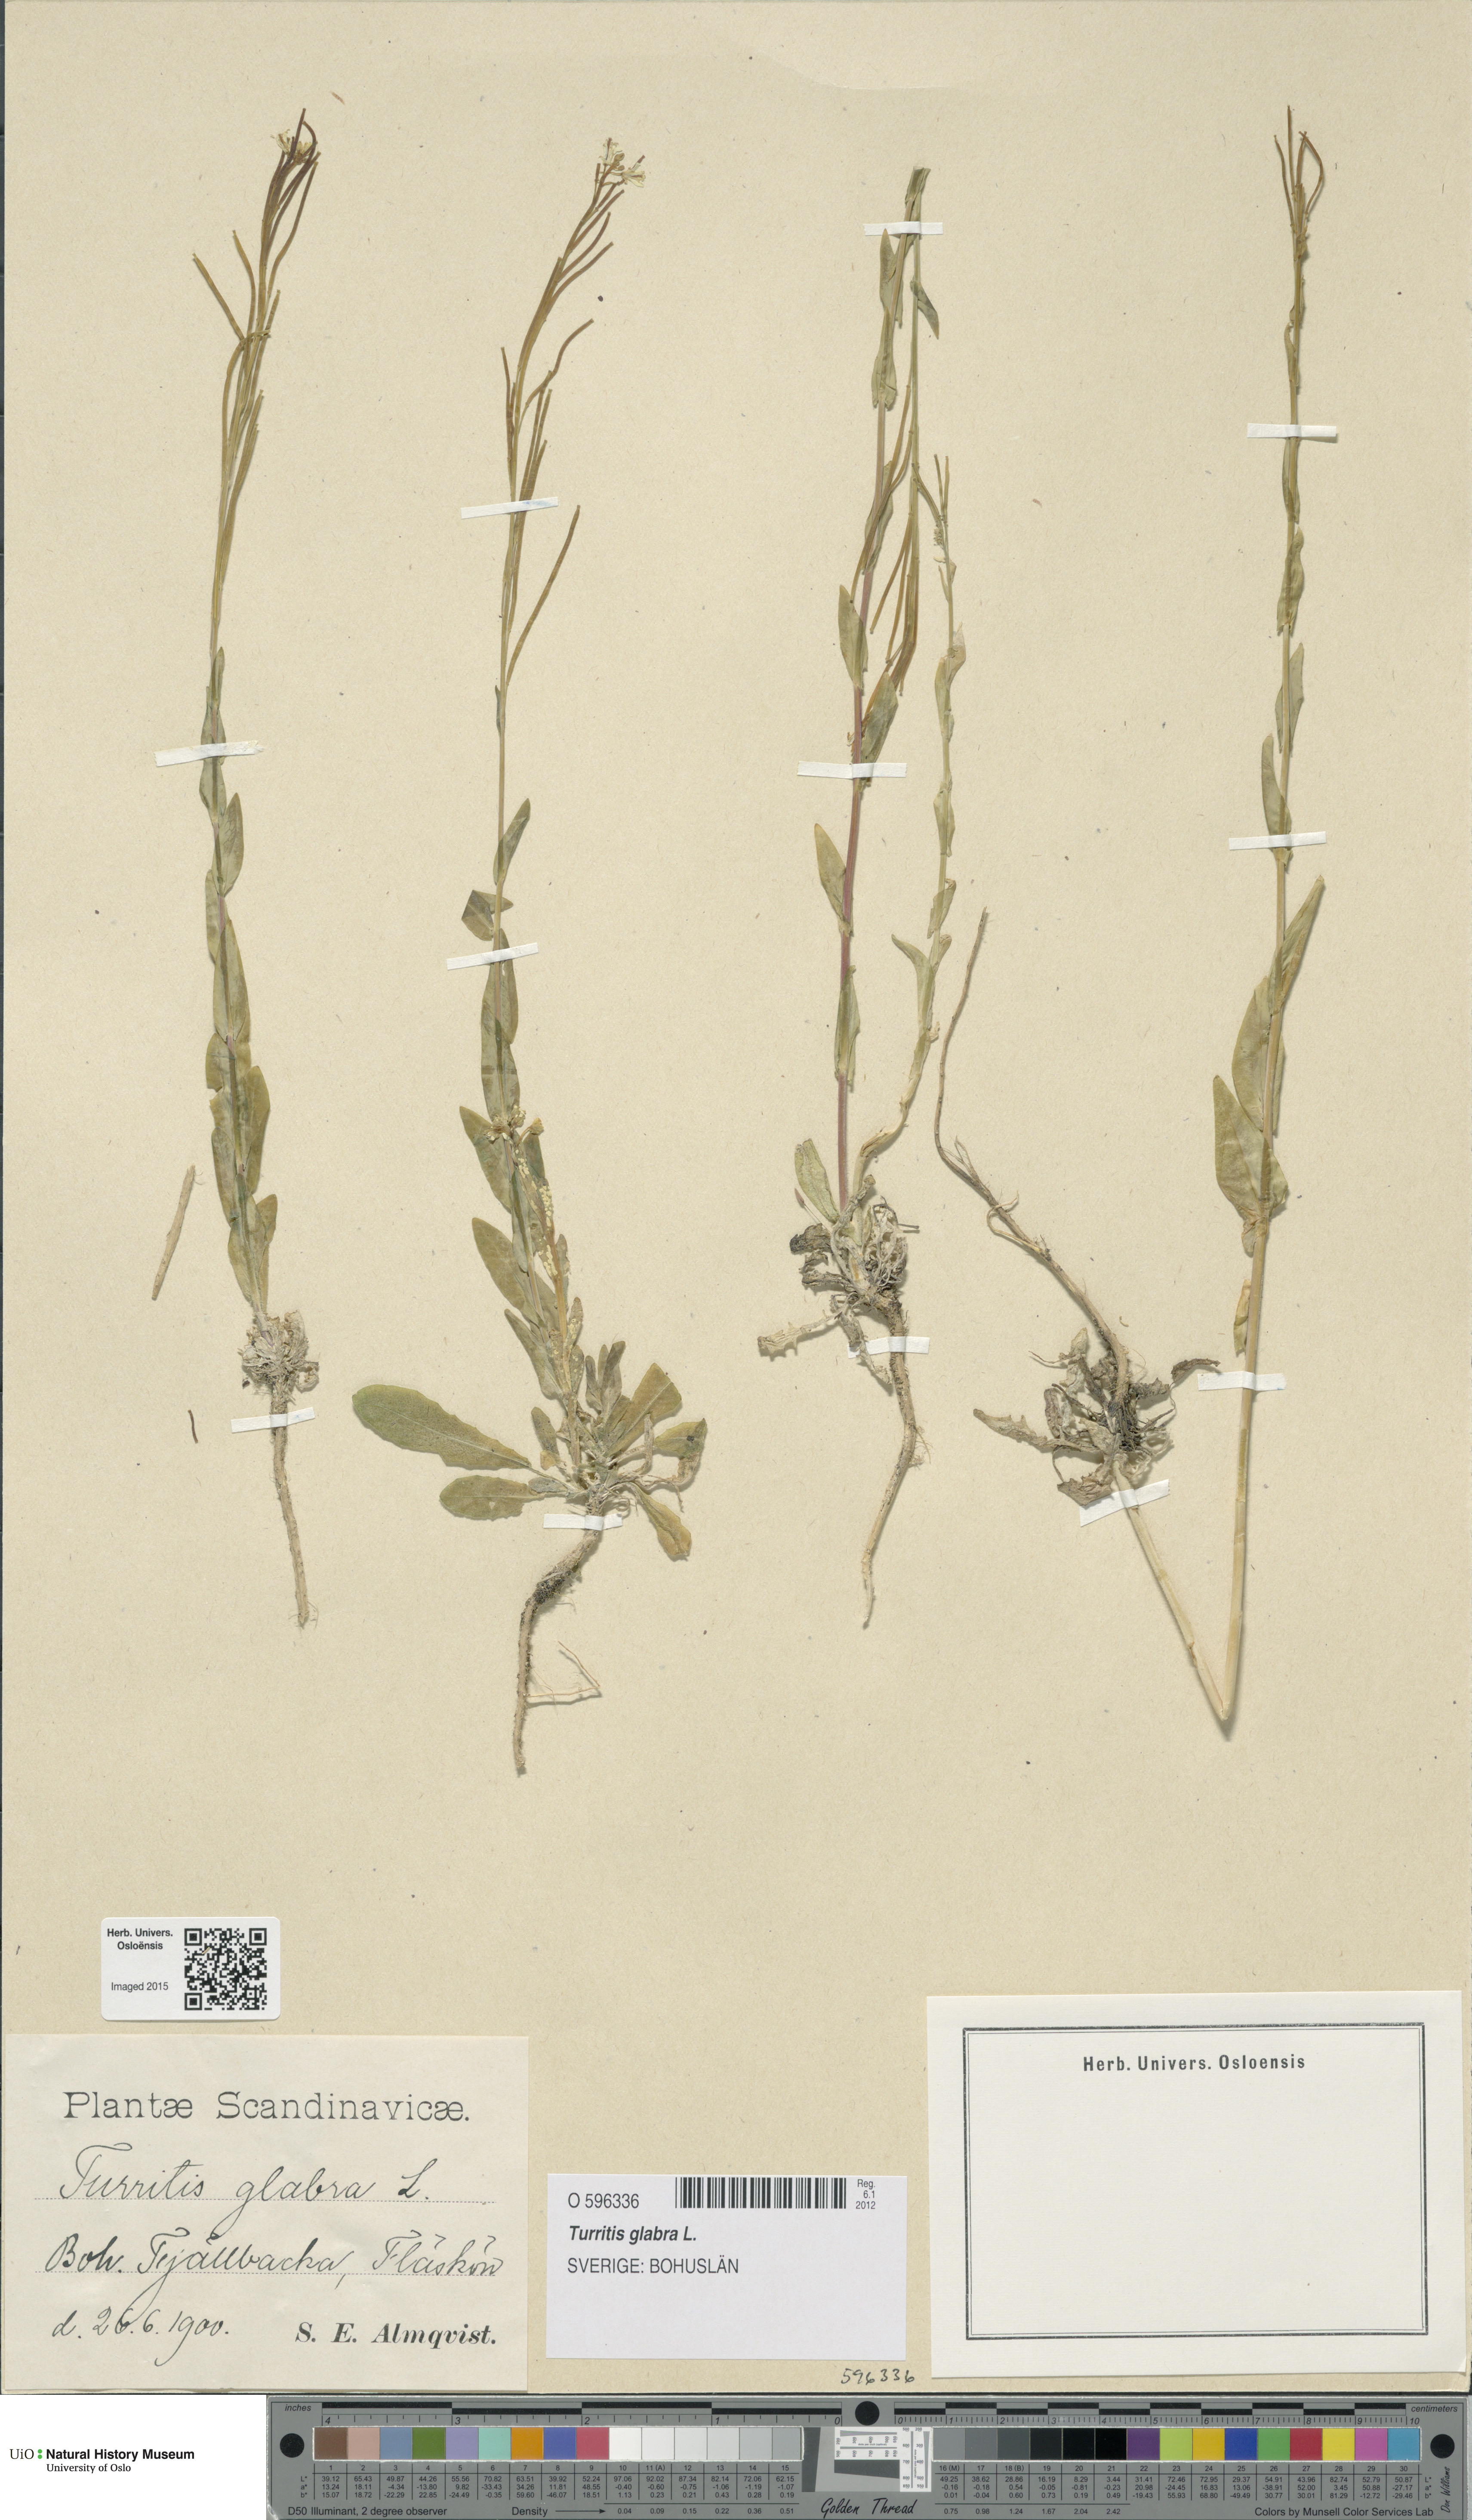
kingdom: Plantae
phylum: Tracheophyta
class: Magnoliopsida
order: Brassicales
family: Brassicaceae
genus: Turritis
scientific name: Turritis glabra
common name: Tower rockcress
